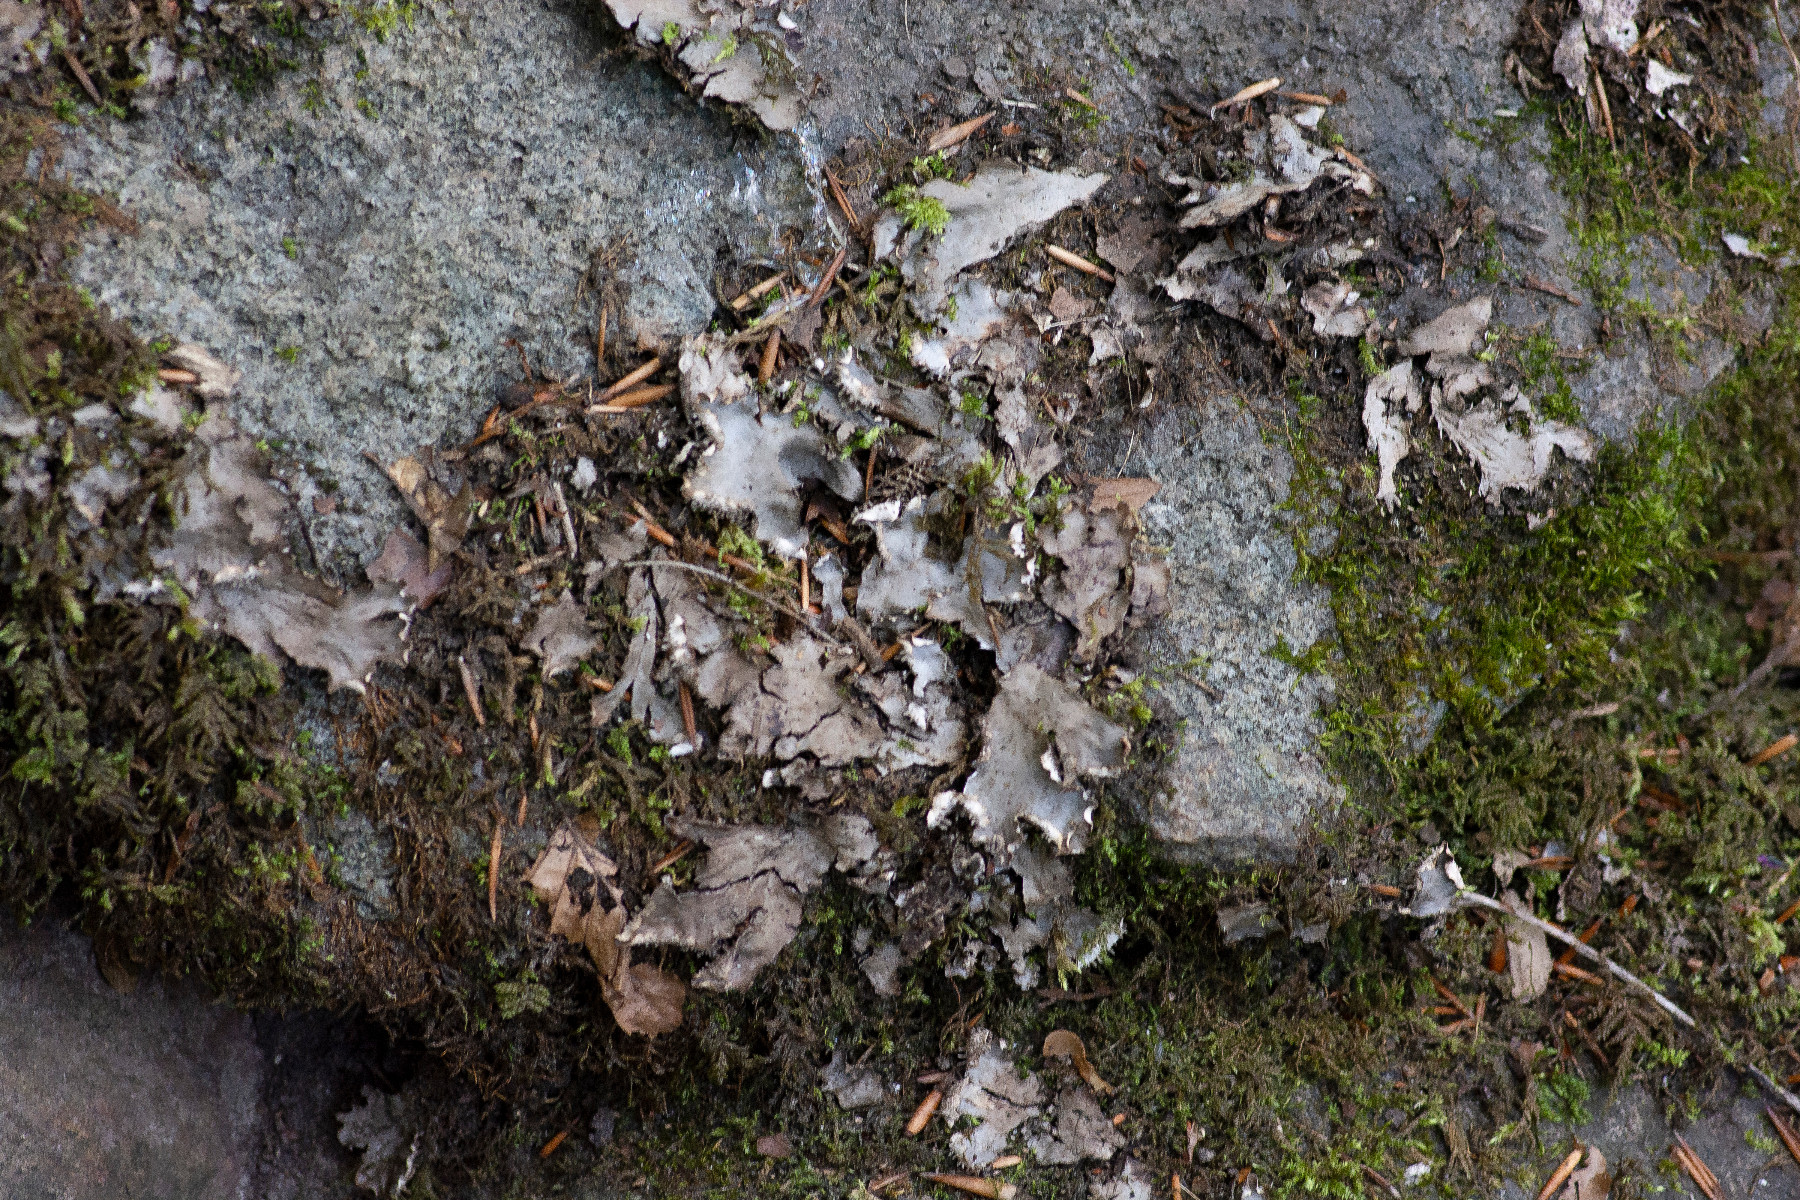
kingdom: Fungi
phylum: Ascomycota
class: Lecanoromycetes
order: Peltigerales
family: Peltigeraceae
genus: Peltigera
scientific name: Peltigera horizontalis
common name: blank skjoldlav
